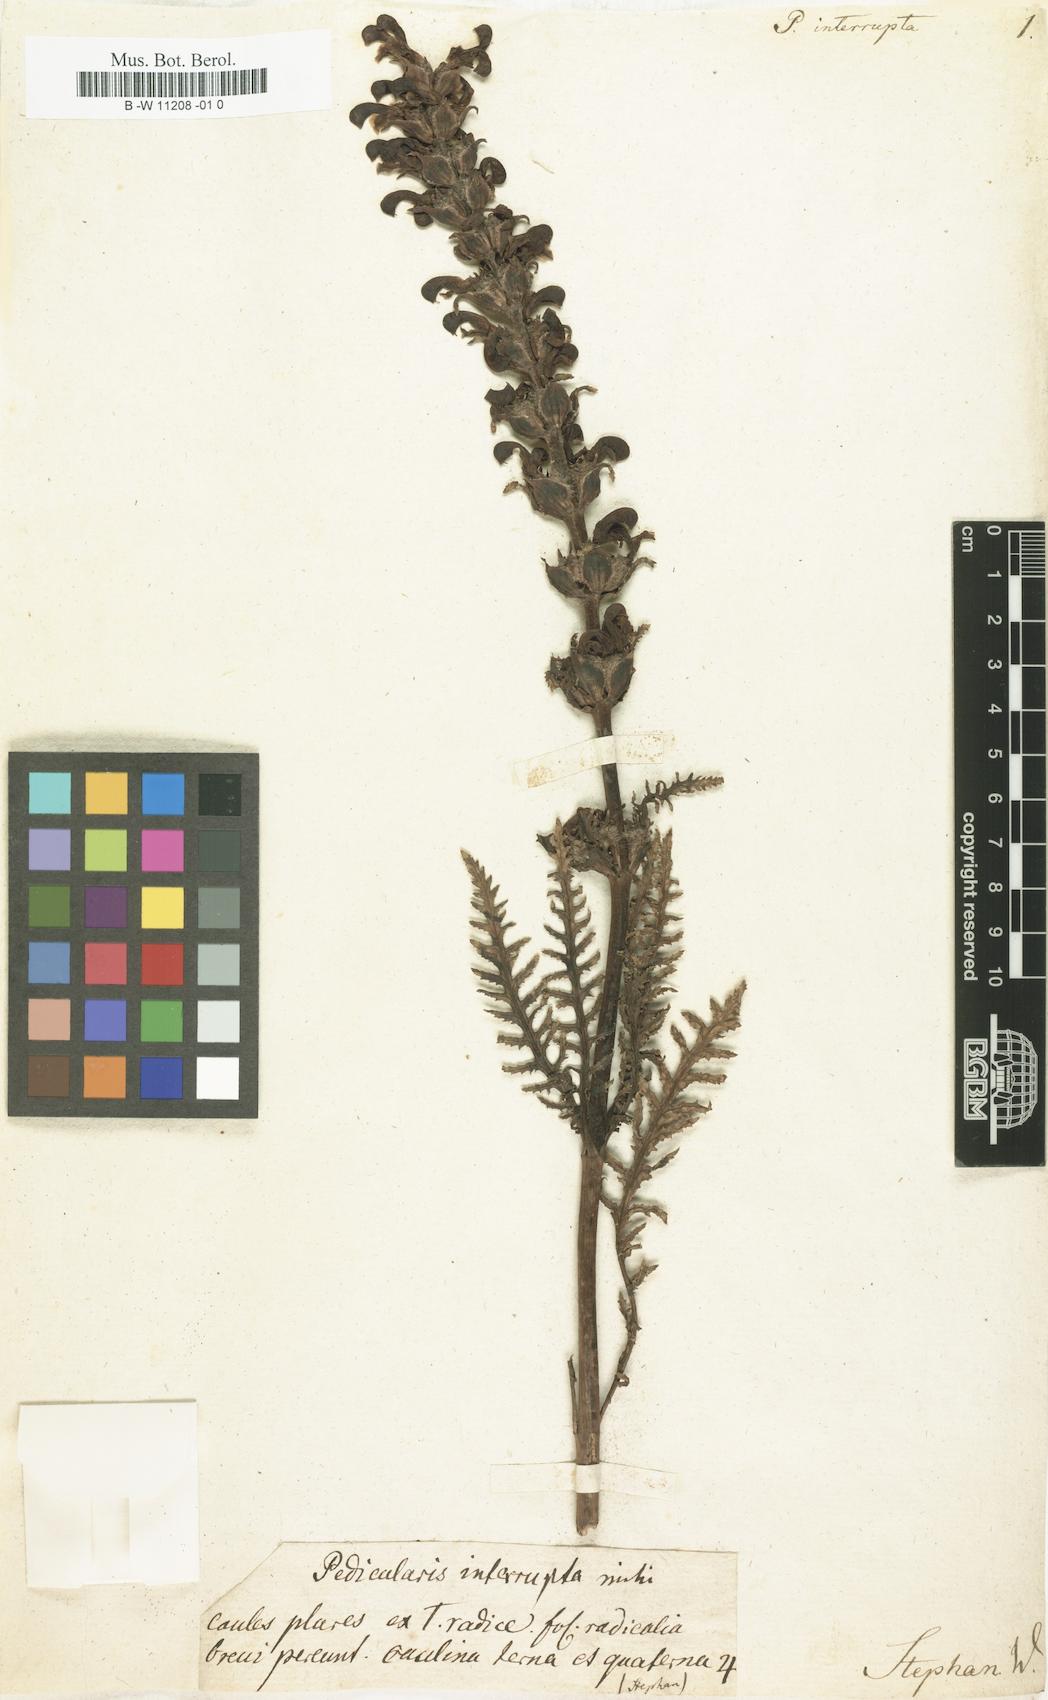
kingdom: Plantae
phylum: Tracheophyta
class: Magnoliopsida
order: Lamiales
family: Orobanchaceae
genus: Pedicularis
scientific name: Pedicularis interrupta
